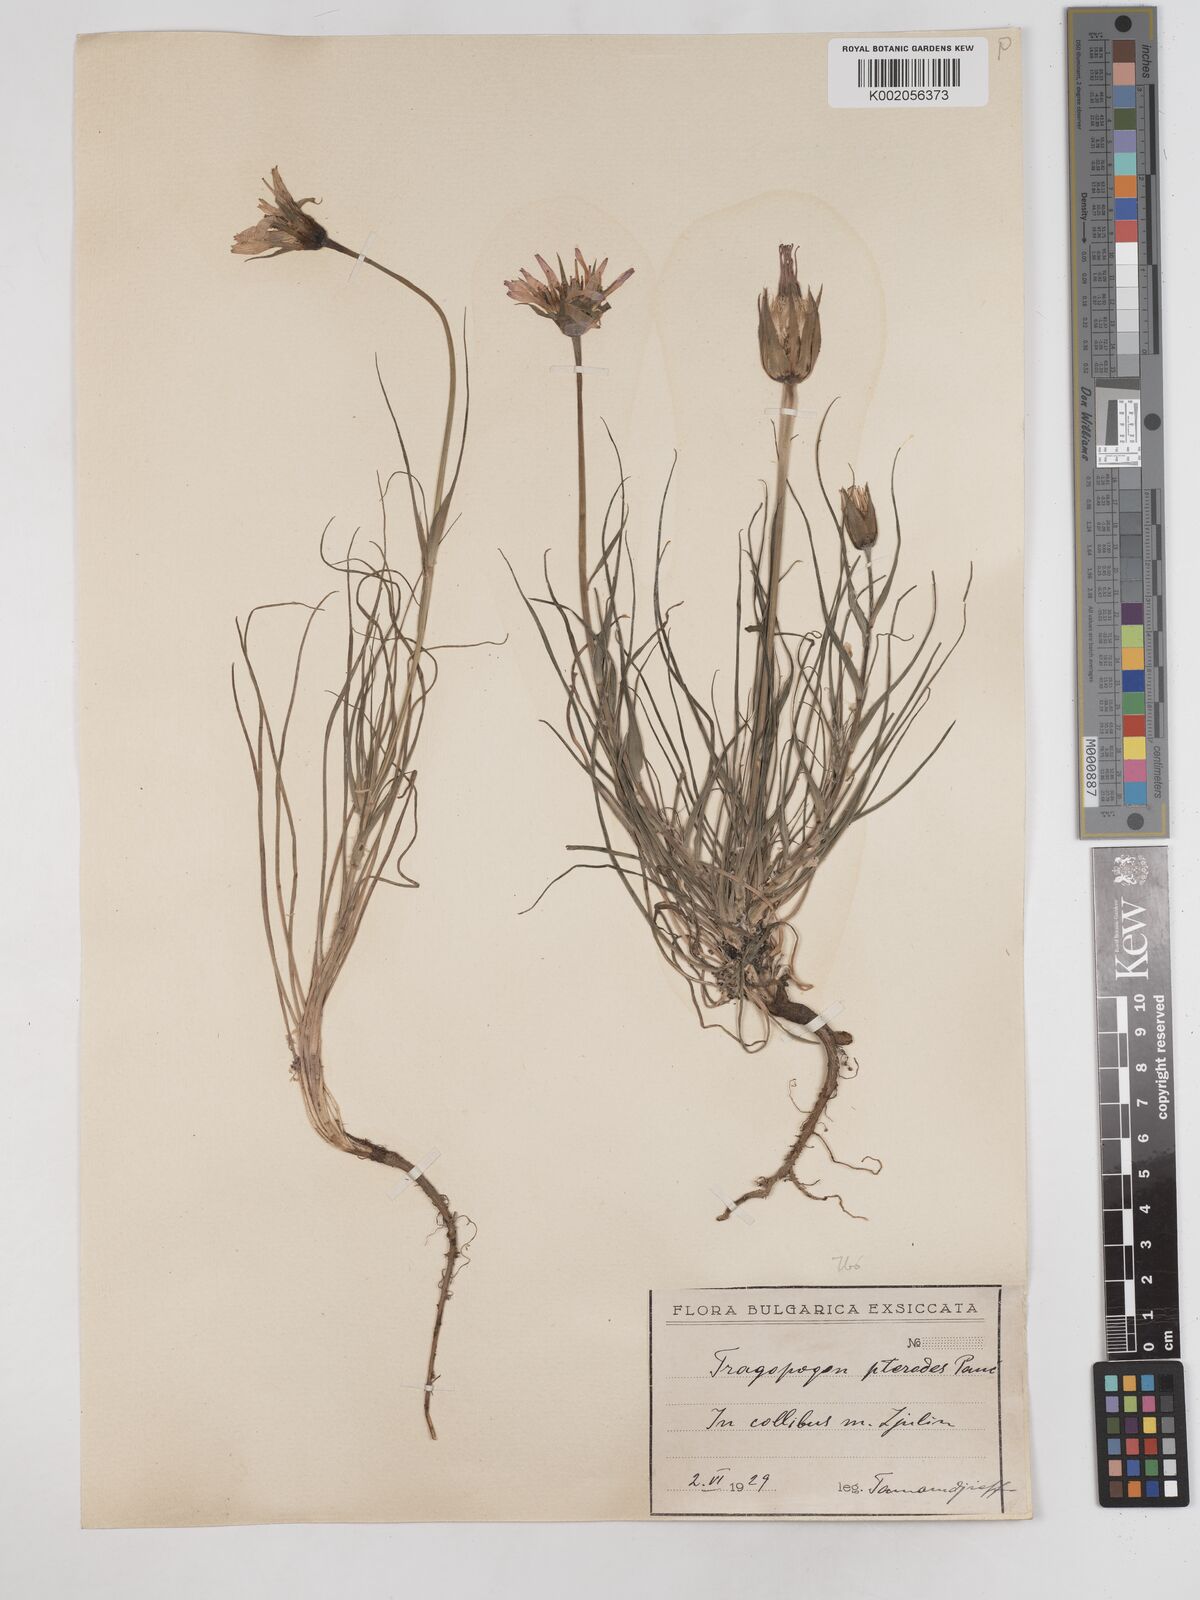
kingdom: Plantae
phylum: Tracheophyta
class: Magnoliopsida
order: Asterales
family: Asteraceae
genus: Tragopogon
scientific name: Tragopogon pterodes
